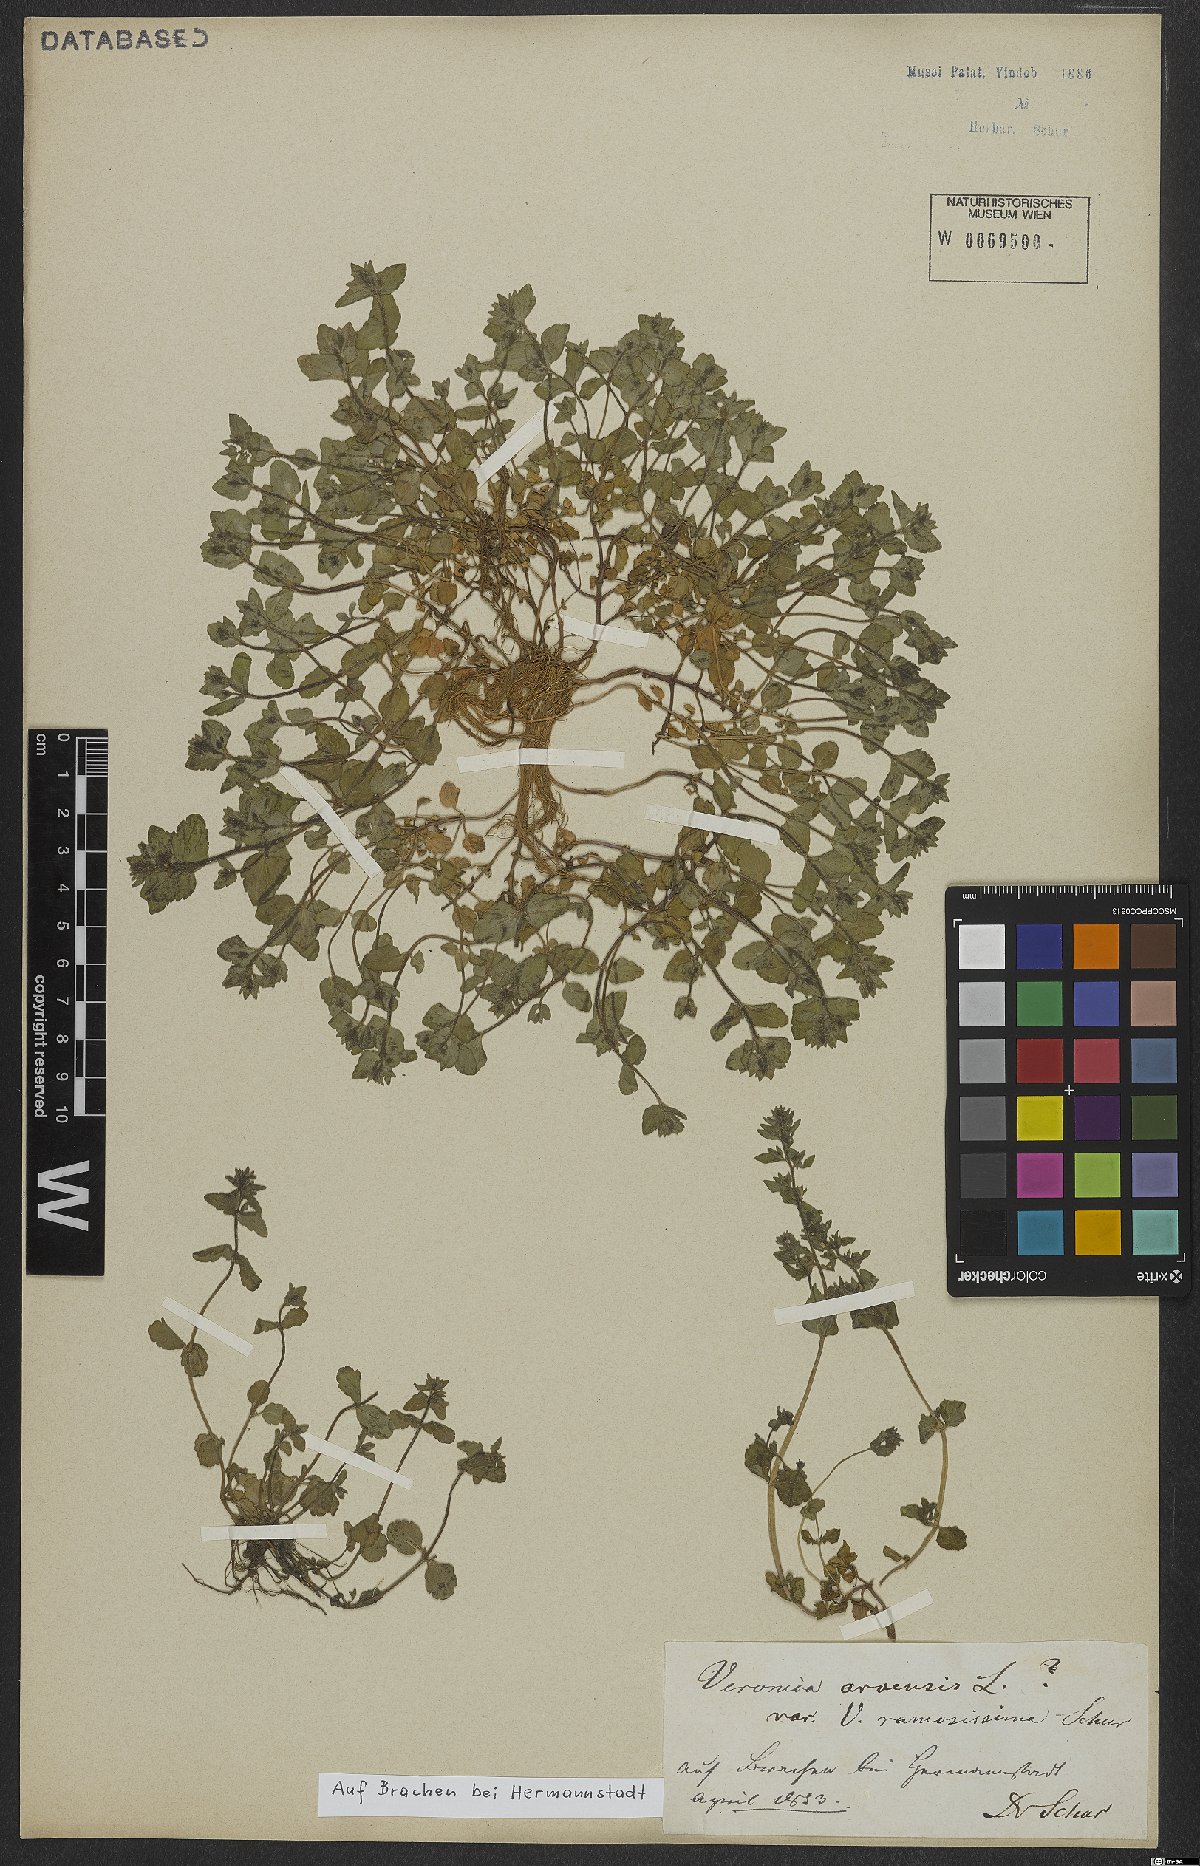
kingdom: Plantae
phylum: Tracheophyta
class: Magnoliopsida
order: Lamiales
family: Plantaginaceae
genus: Veronica
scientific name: Veronica arvensis
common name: Corn speedwell
